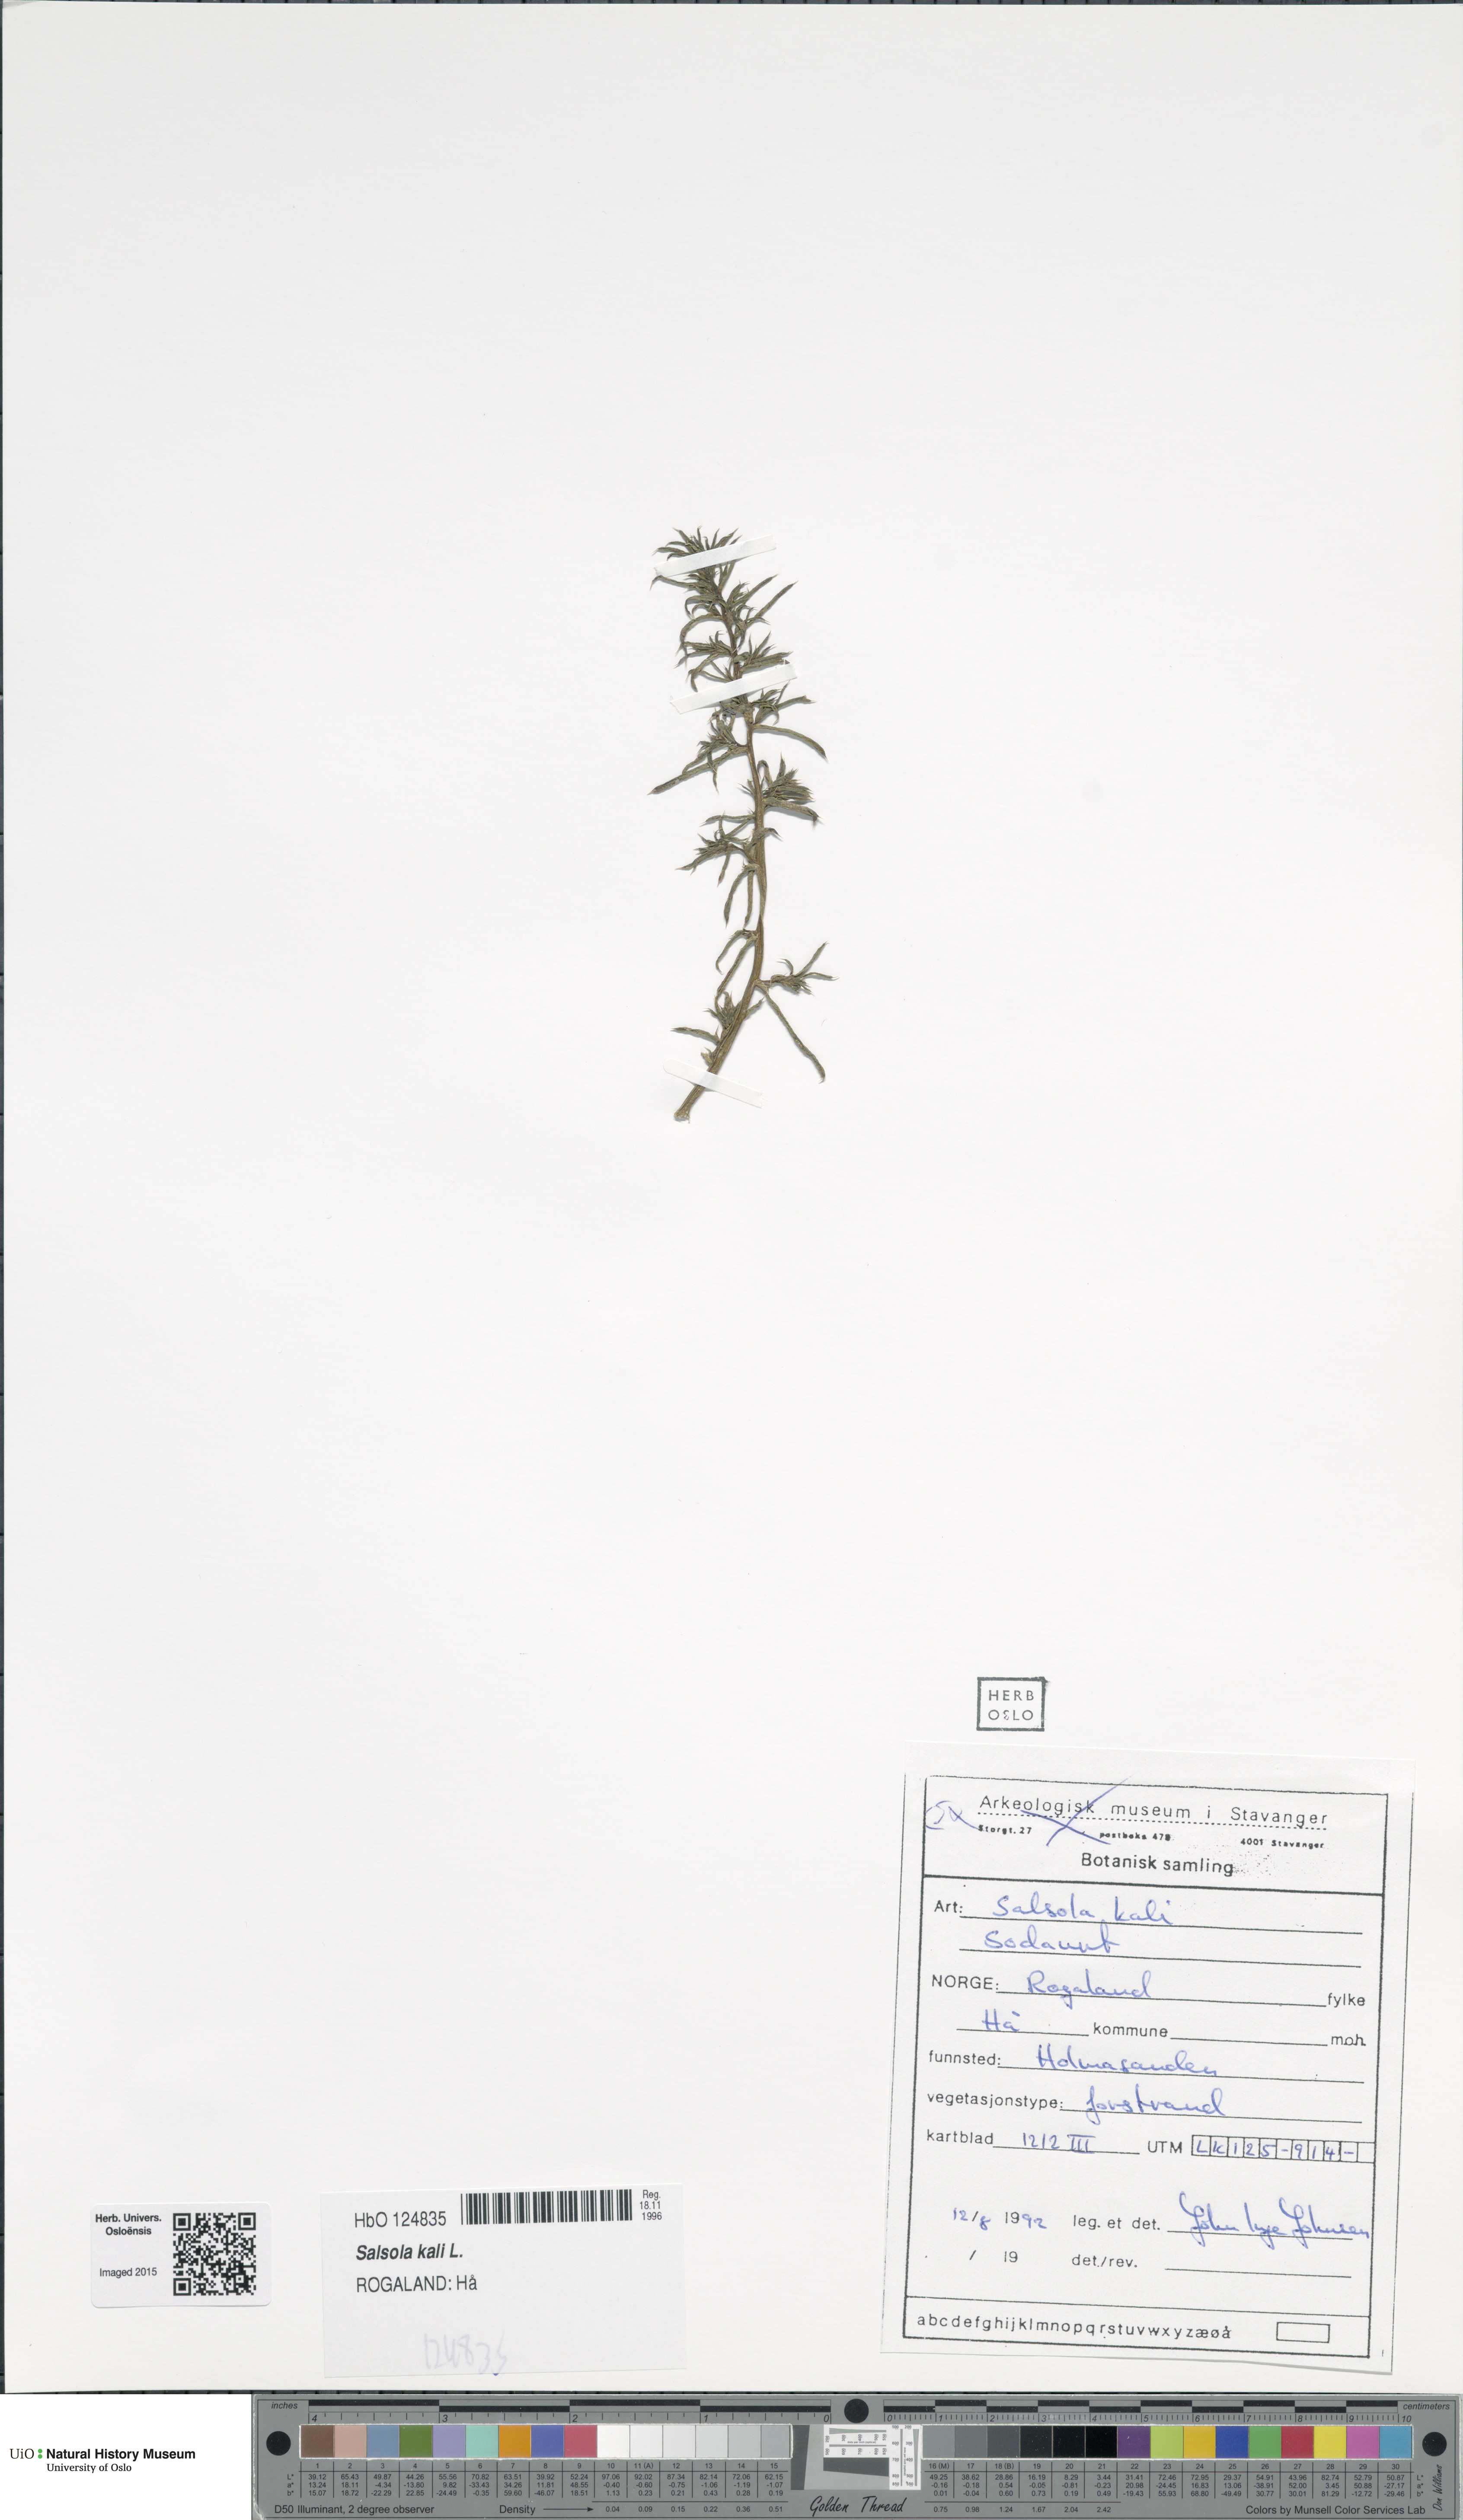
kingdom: Plantae
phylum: Tracheophyta
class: Magnoliopsida
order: Caryophyllales
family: Amaranthaceae
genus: Salsola
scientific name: Salsola kali
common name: Saltwort
